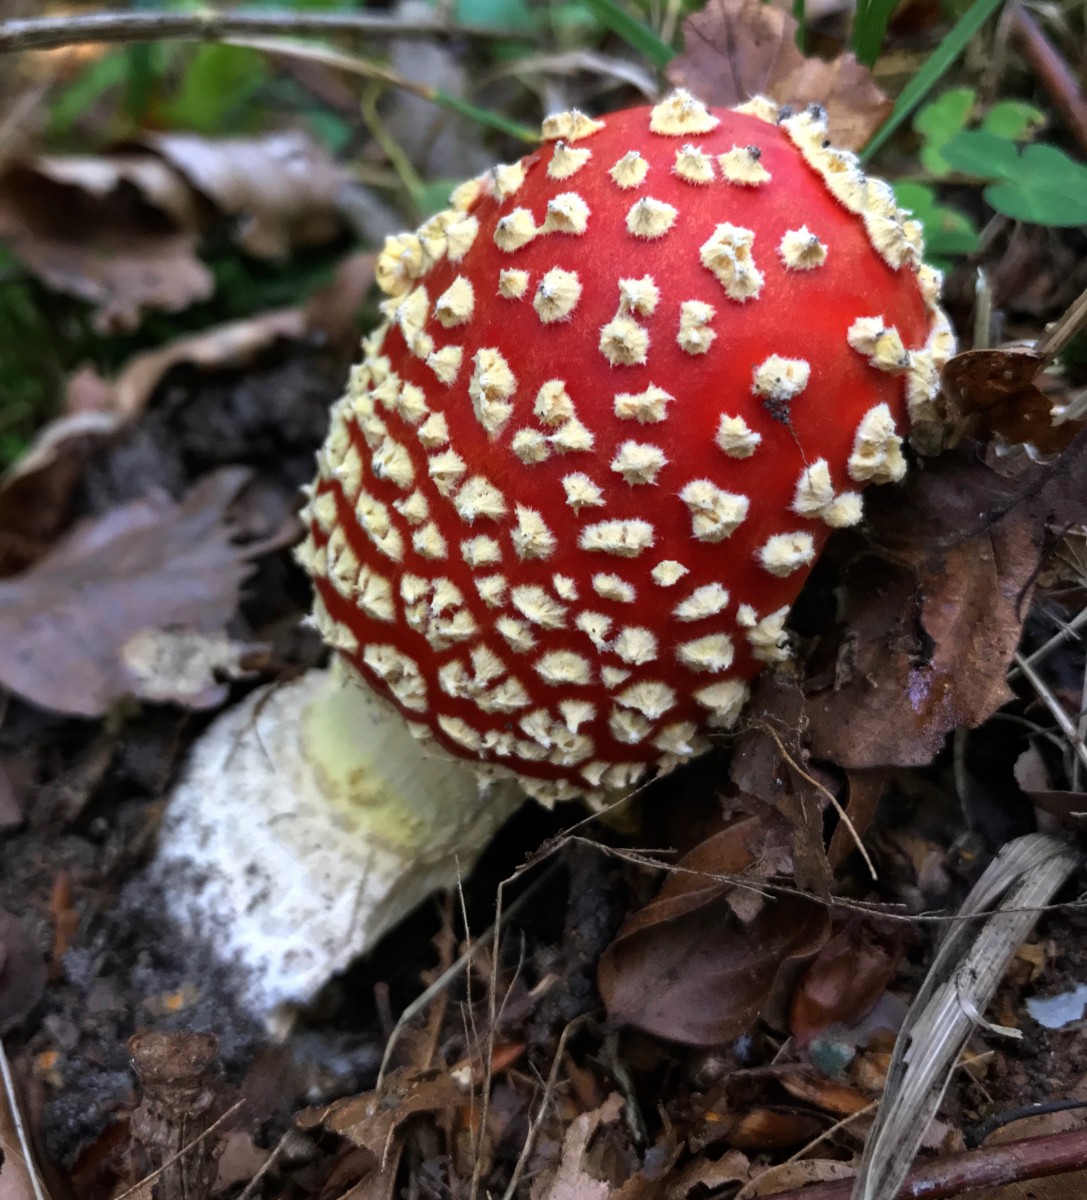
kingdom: Fungi
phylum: Basidiomycota
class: Agaricomycetes
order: Agaricales
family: Amanitaceae
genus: Amanita
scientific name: Amanita muscaria
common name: rød fluesvamp
